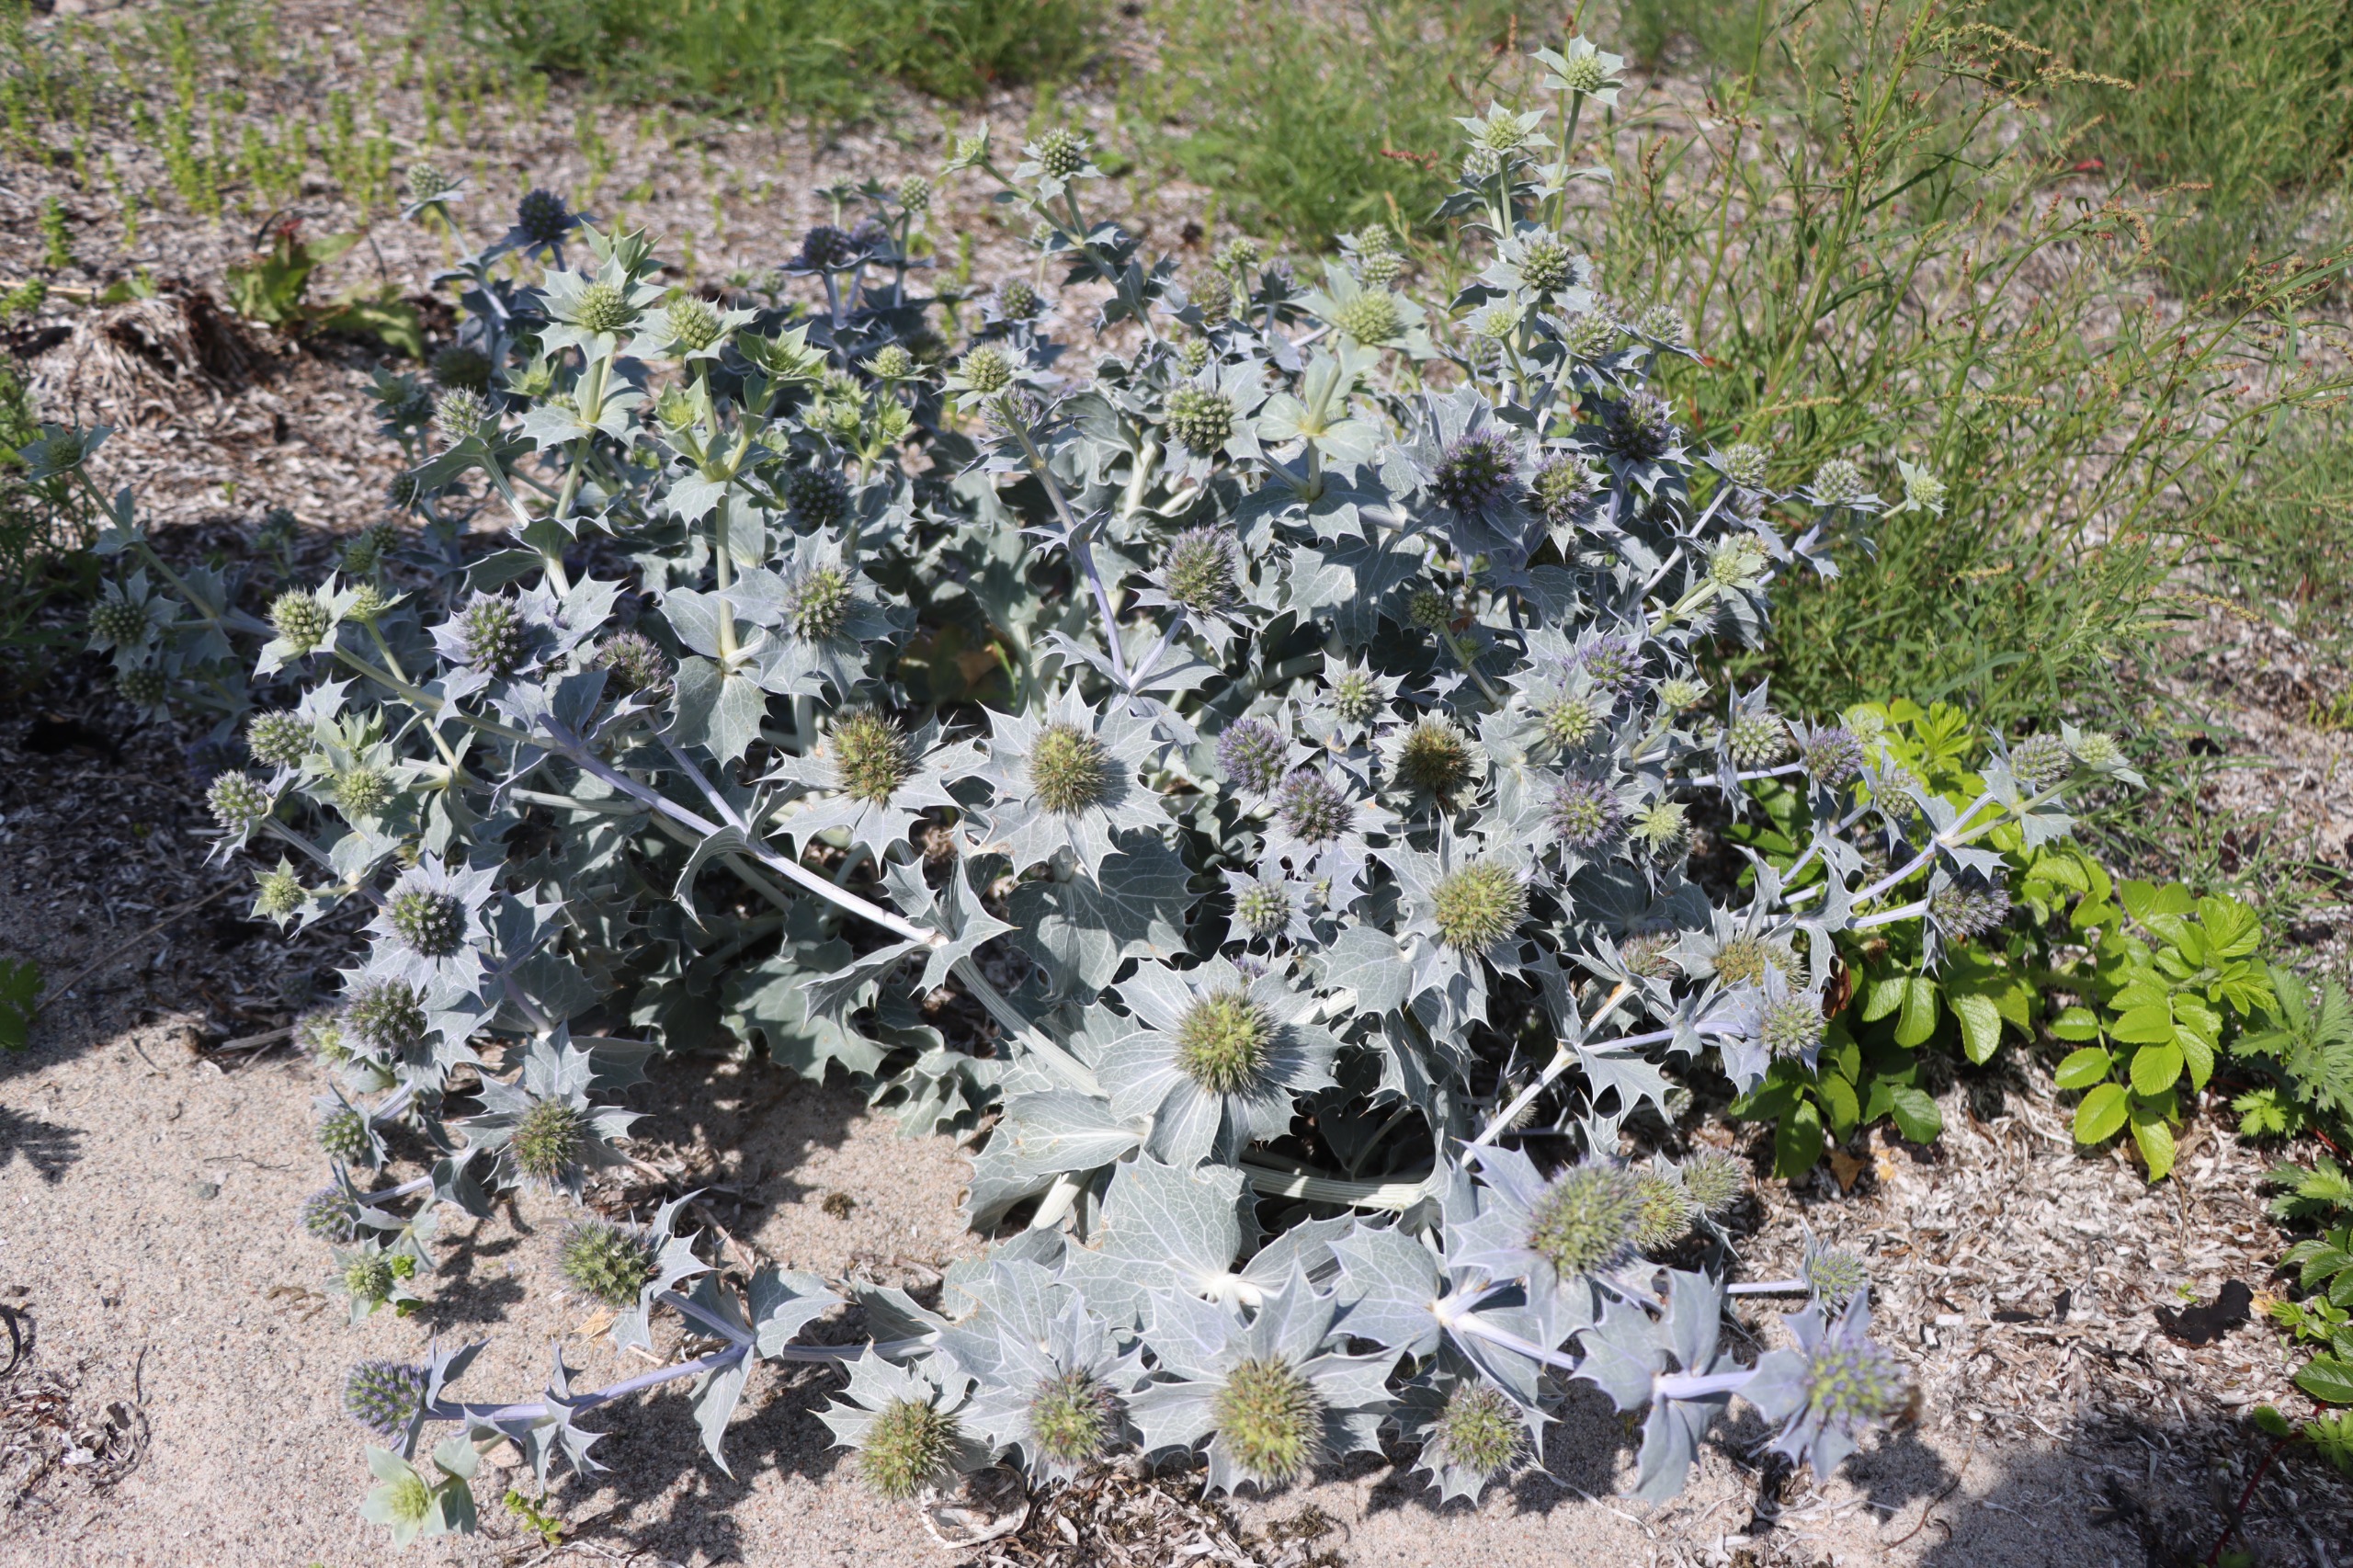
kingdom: Plantae
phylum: Tracheophyta
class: Magnoliopsida
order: Apiales
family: Apiaceae
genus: Eryngium
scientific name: Eryngium maritimum
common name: Strand-mandstro
